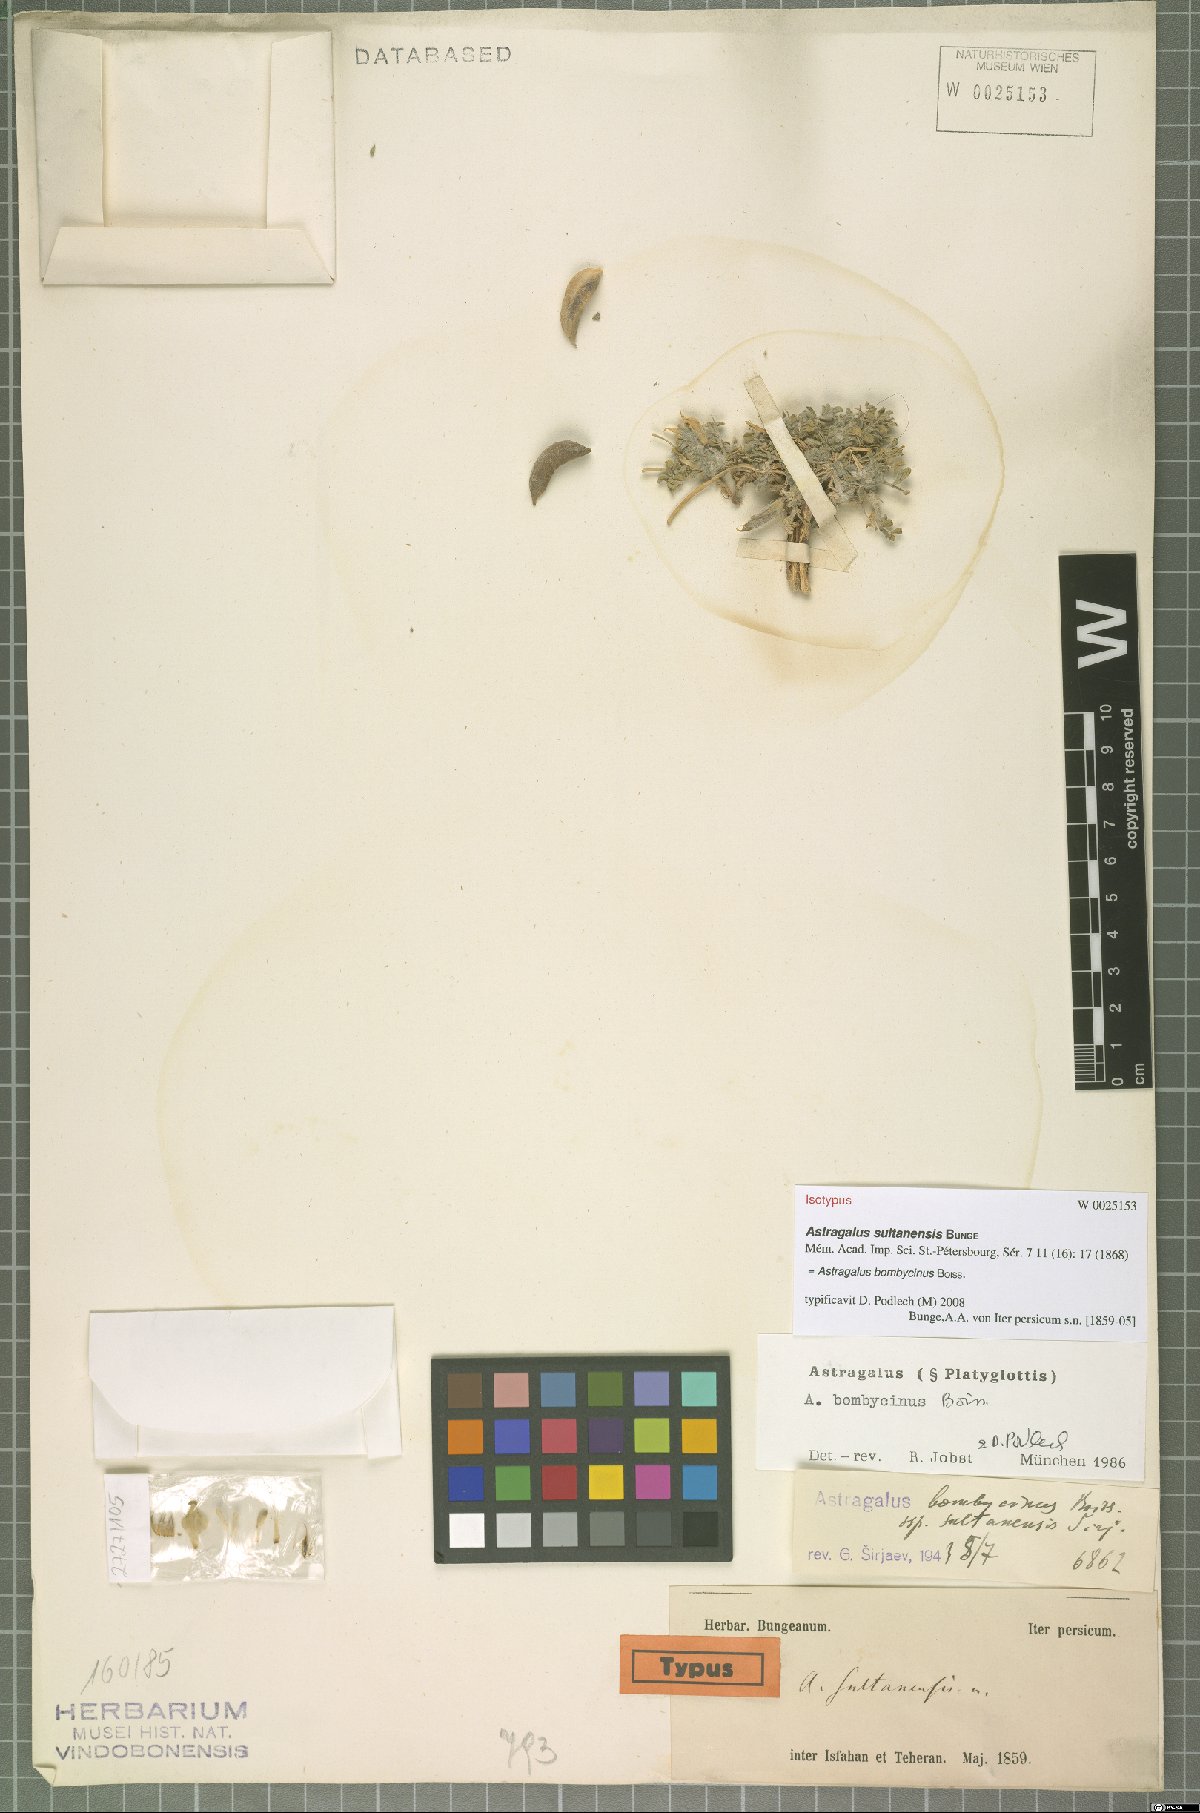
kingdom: Plantae
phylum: Tracheophyta
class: Magnoliopsida
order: Fabales
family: Fabaceae
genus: Astragalus
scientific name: Astragalus bombycinus
